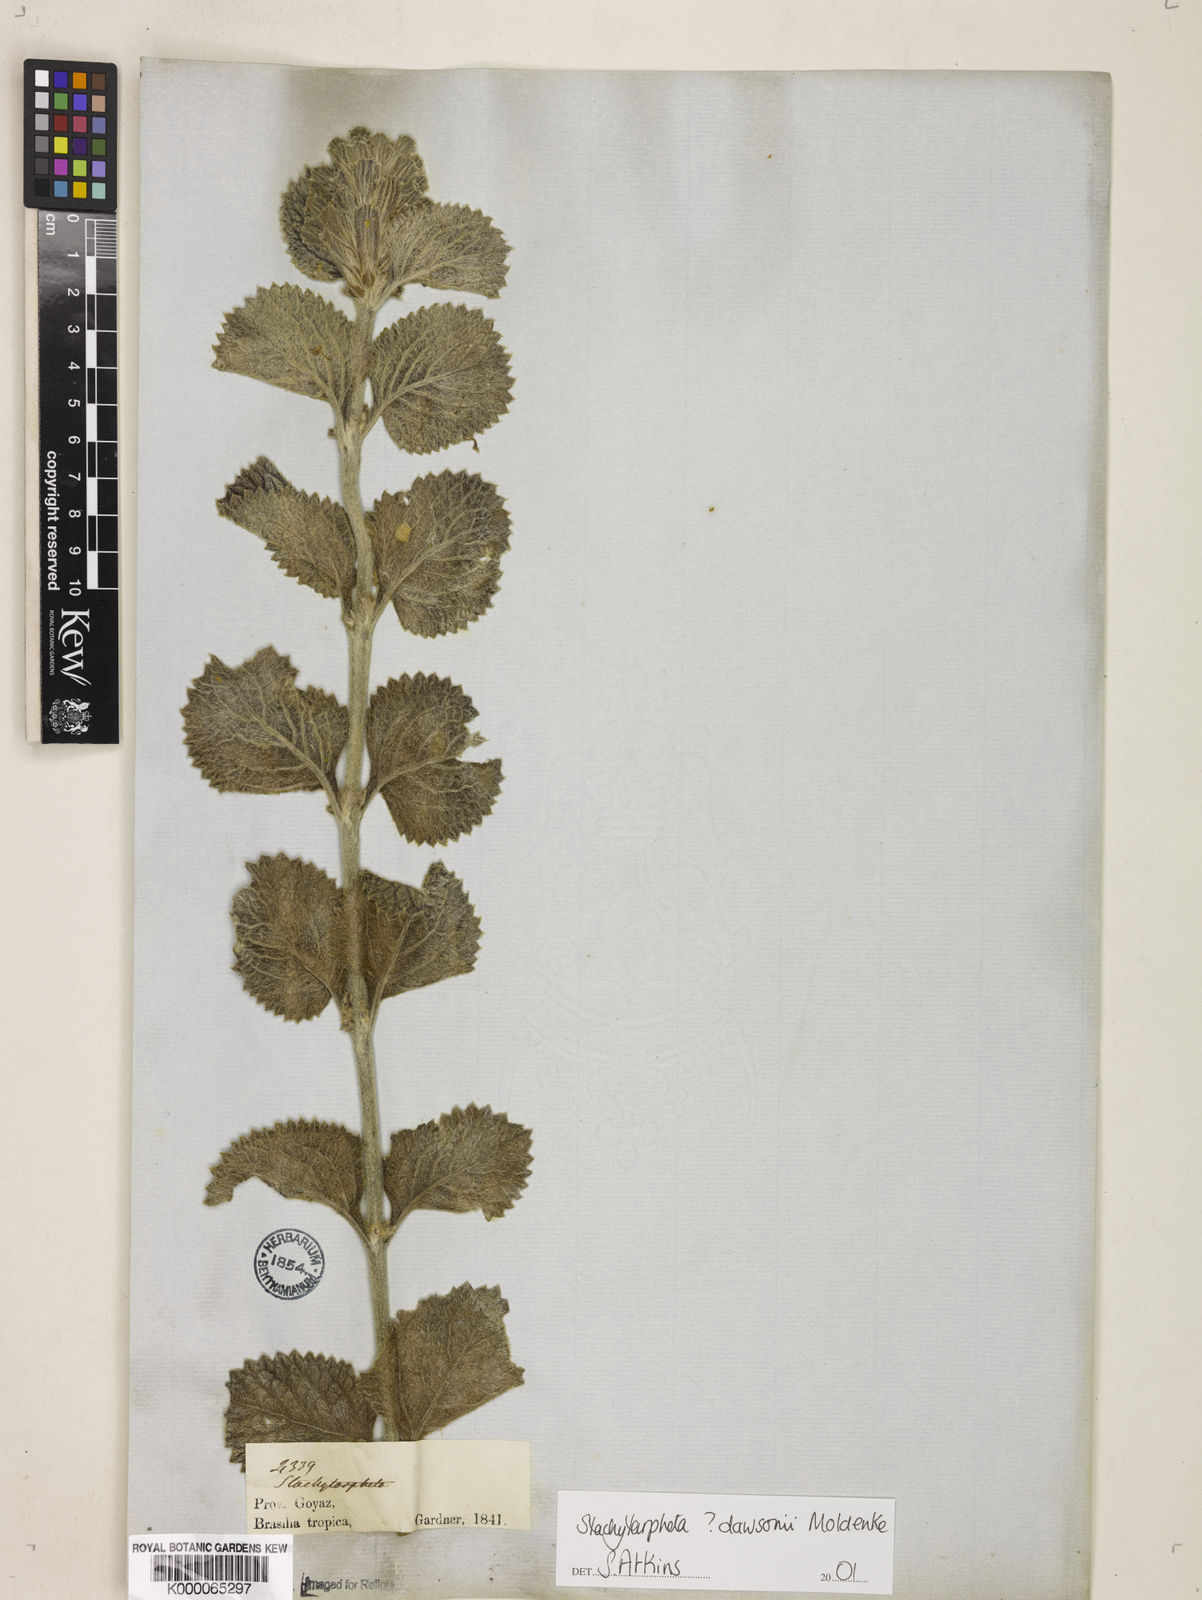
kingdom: Plantae
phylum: Tracheophyta
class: Magnoliopsida
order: Lamiales
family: Verbenaceae
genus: Stachytarpheta
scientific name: Stachytarpheta mollis
